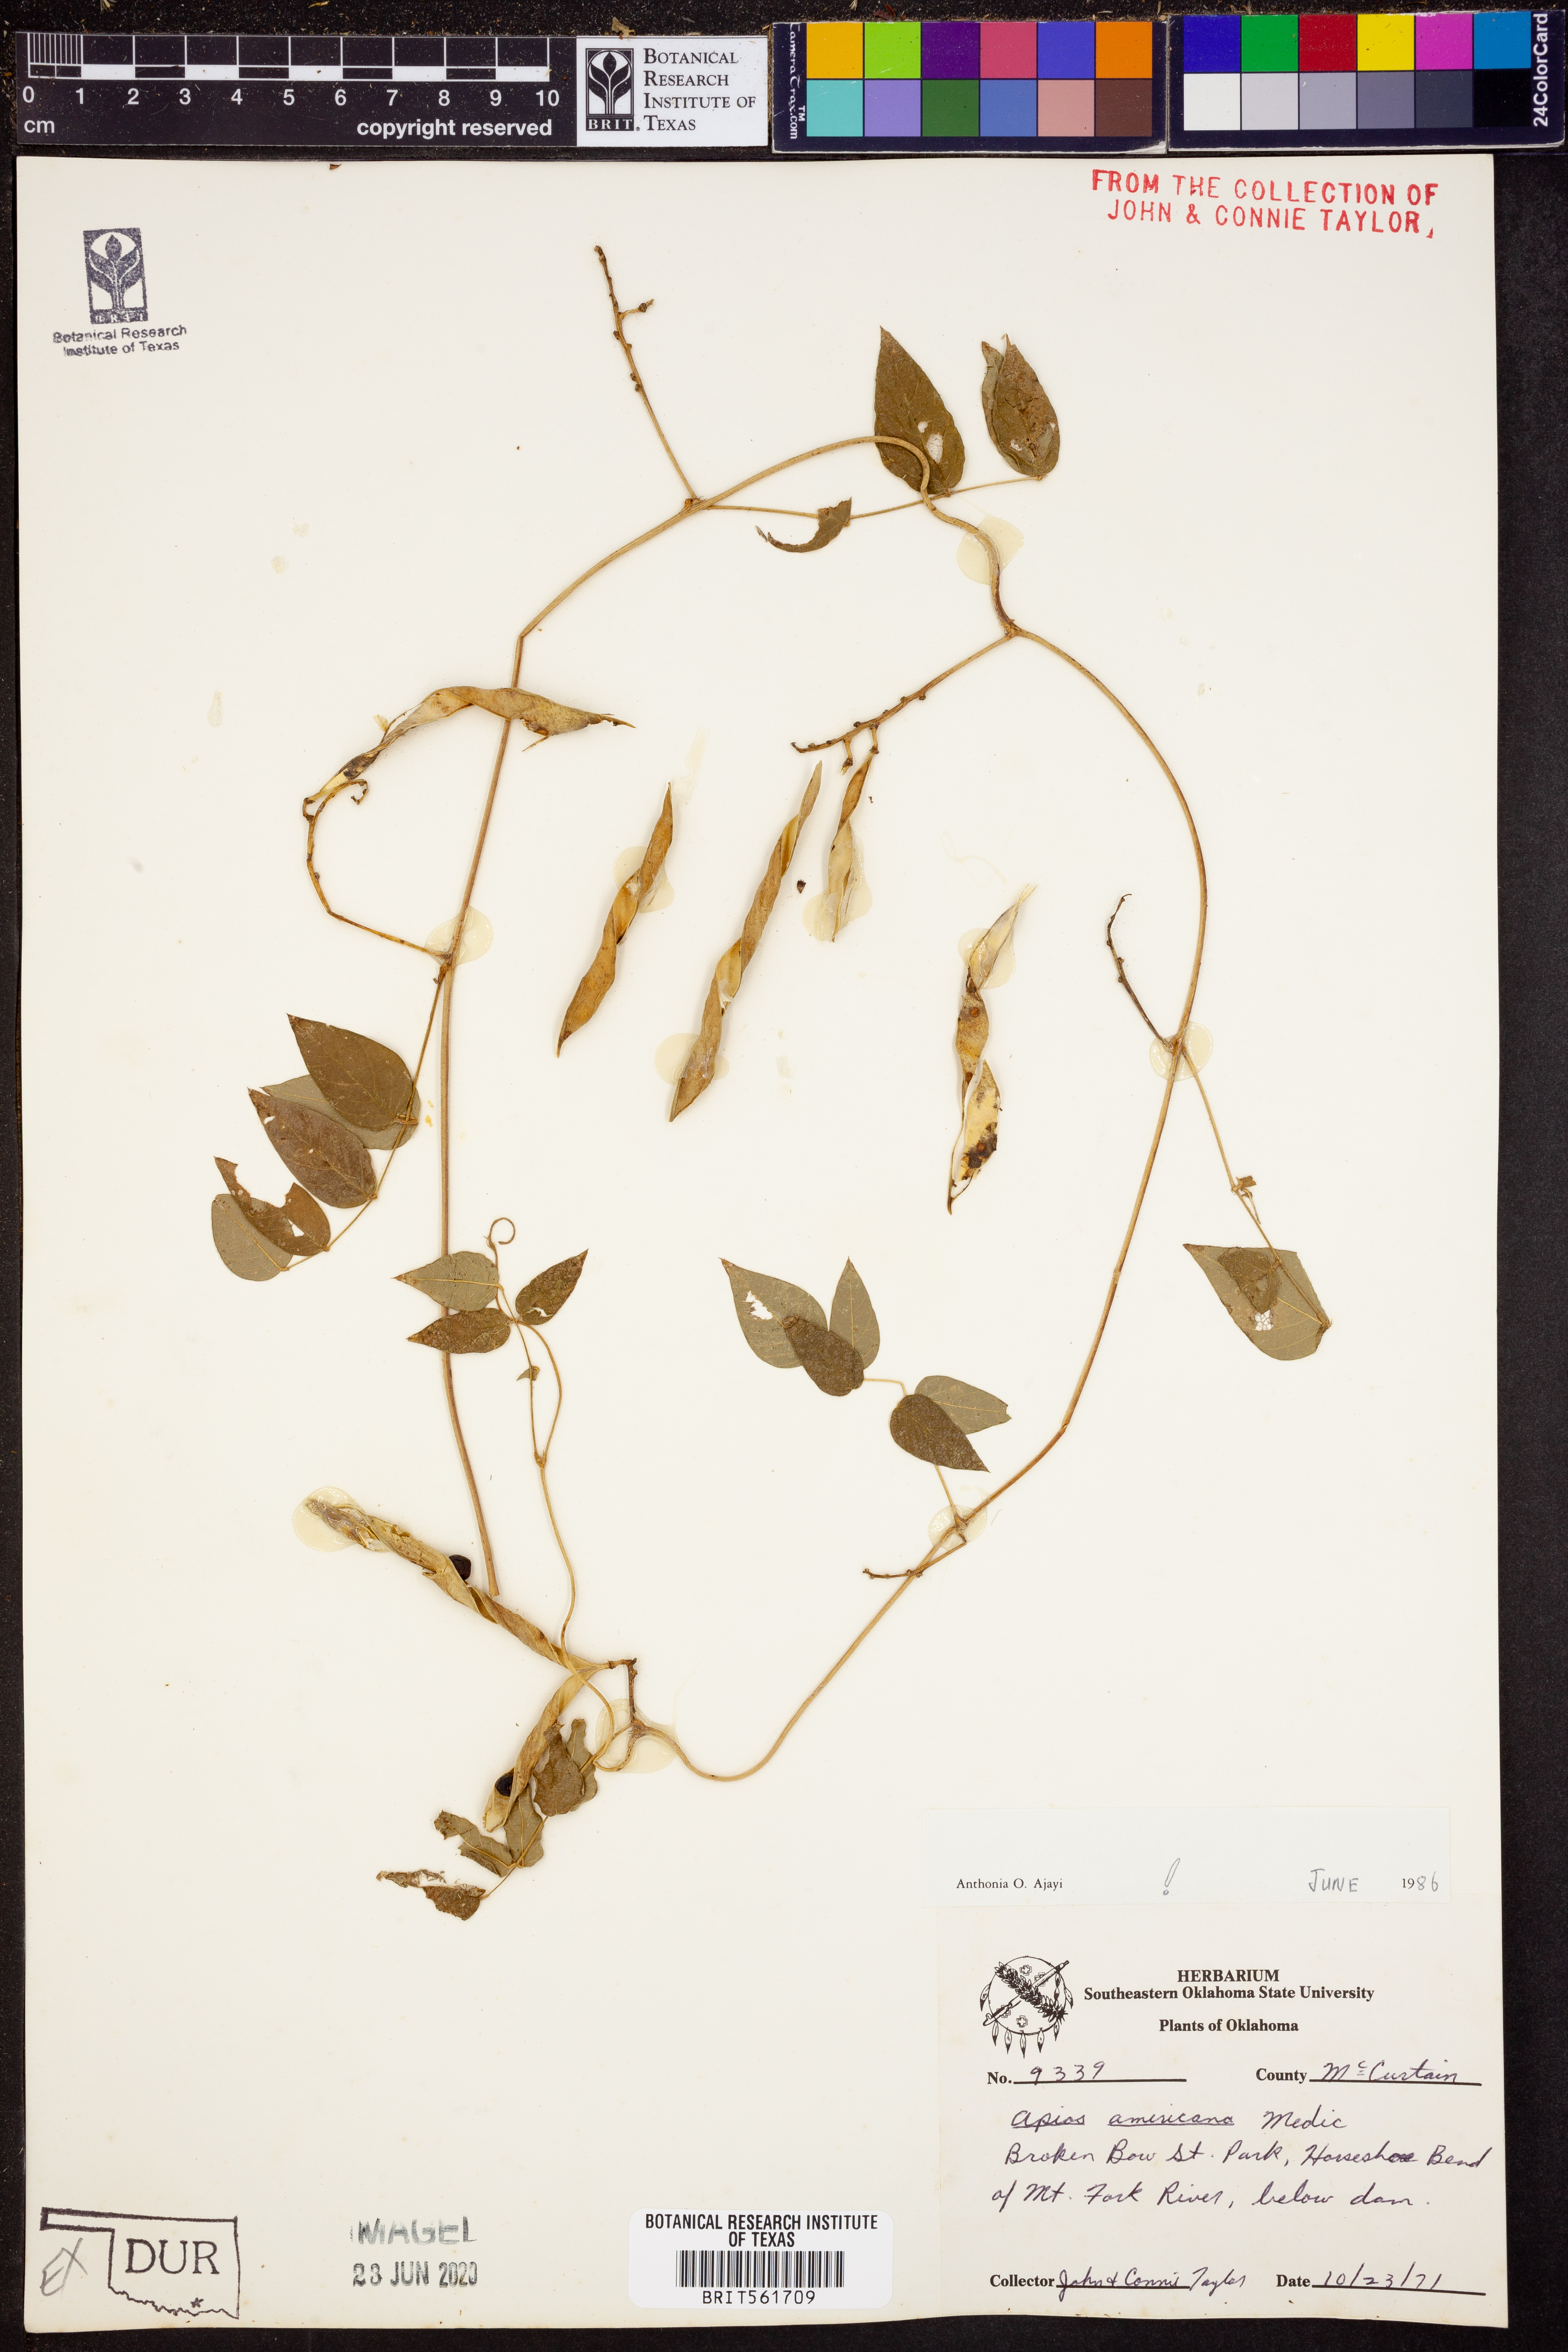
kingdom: Plantae
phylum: Tracheophyta
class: Magnoliopsida
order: Fabales
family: Fabaceae
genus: Apios
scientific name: Apios americana
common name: American potato-bean
